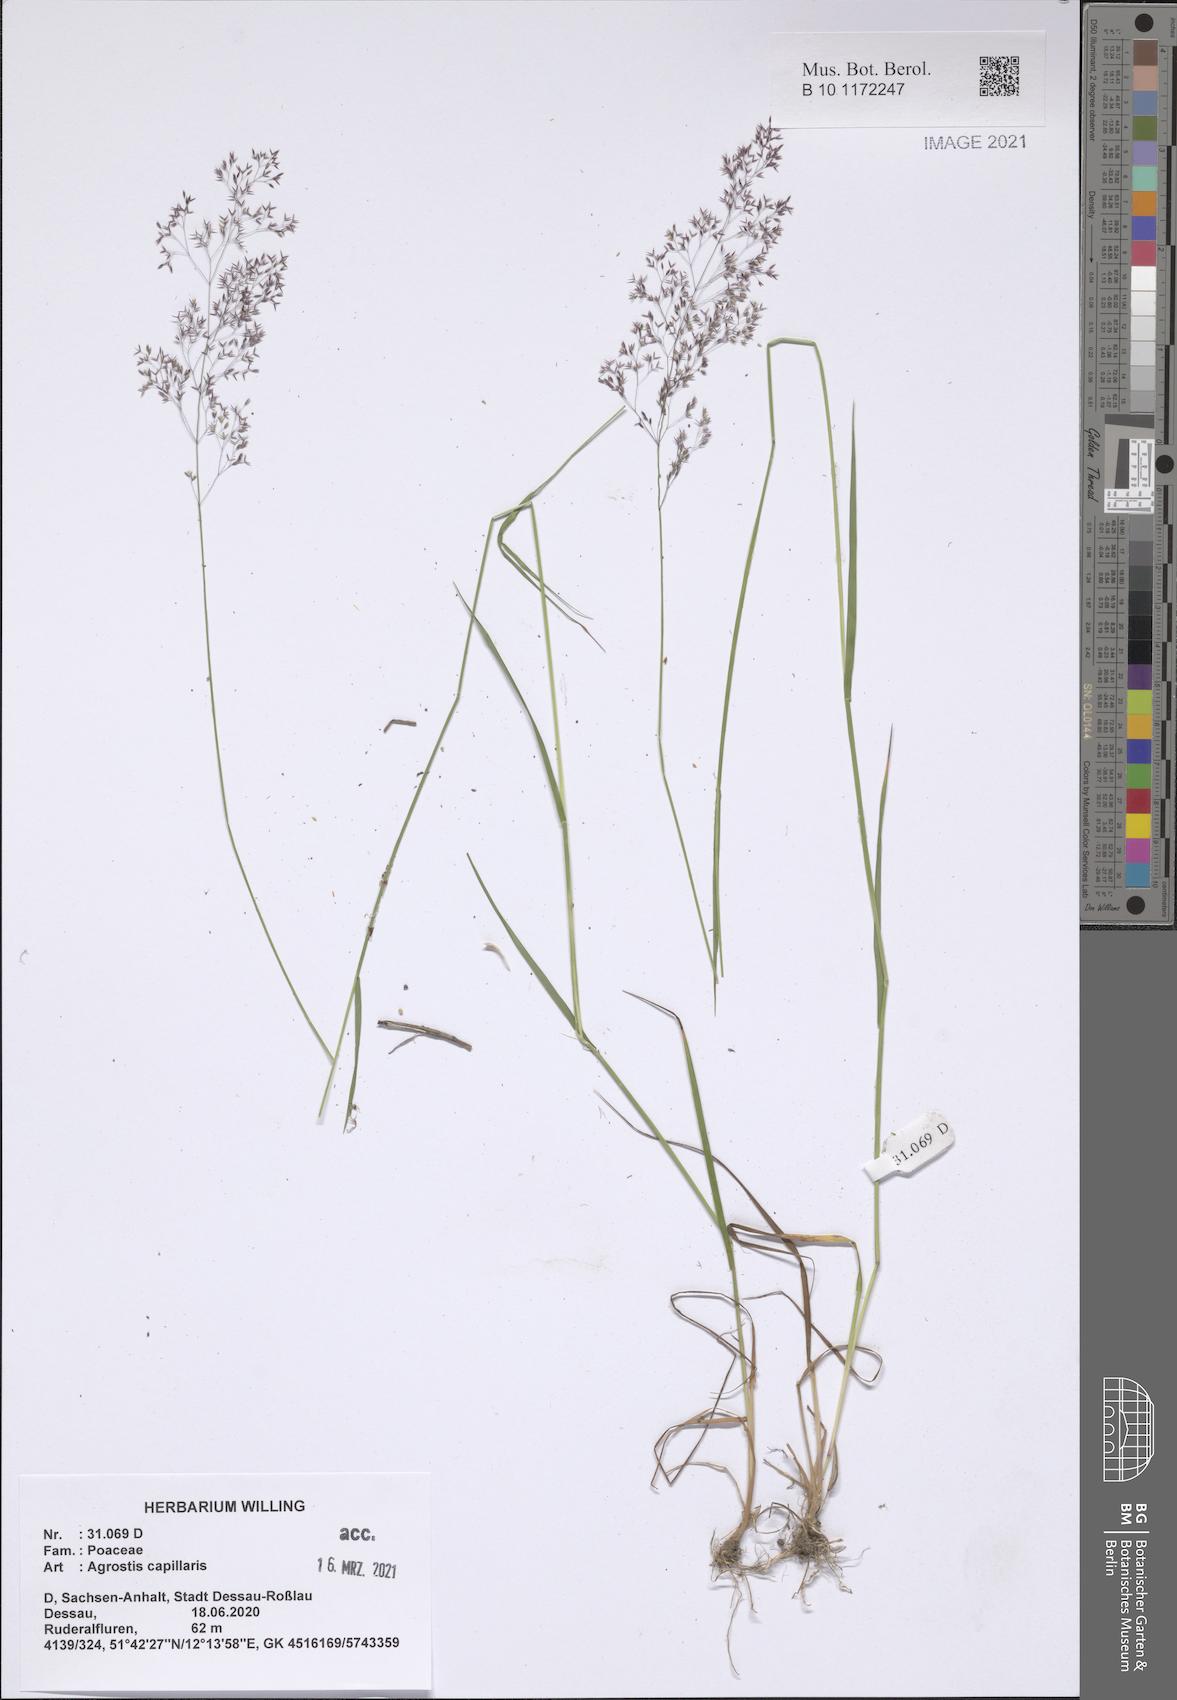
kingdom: Plantae
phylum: Tracheophyta
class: Liliopsida
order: Poales
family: Poaceae
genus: Agrostis
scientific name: Agrostis capillaris
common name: Colonial bentgrass
